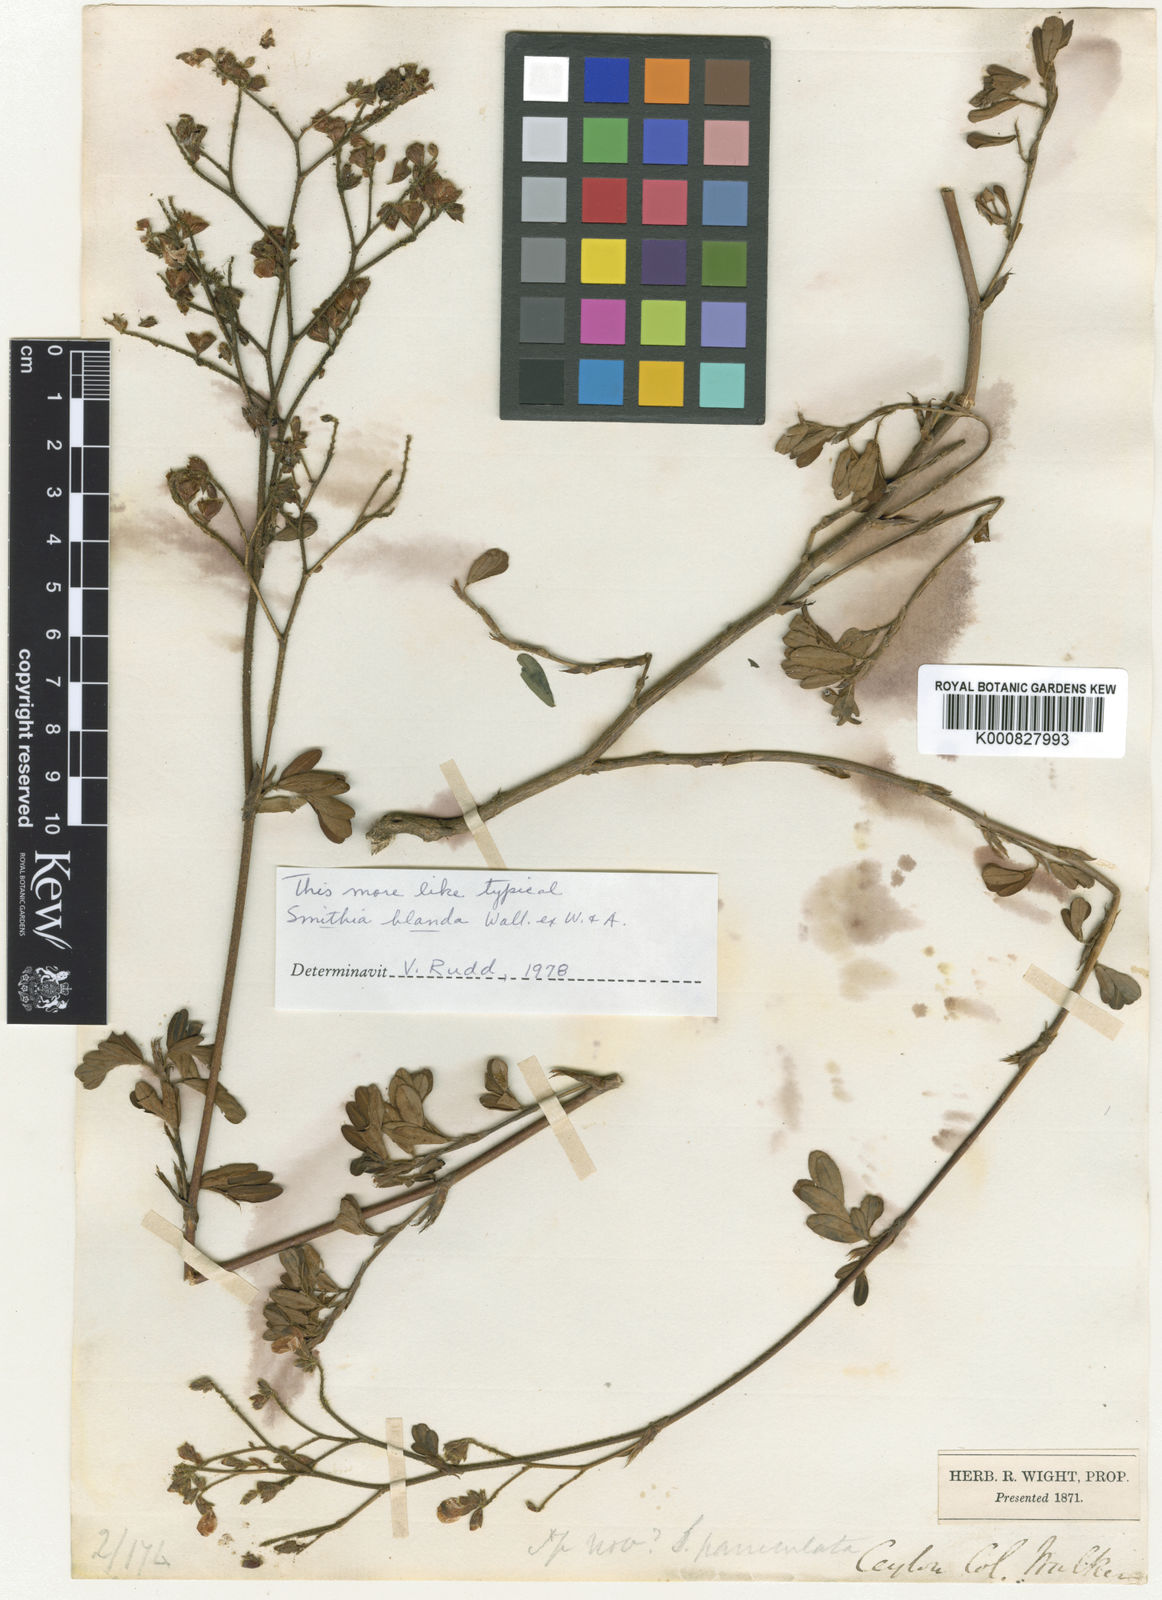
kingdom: Plantae
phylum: Tracheophyta
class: Magnoliopsida
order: Fabales
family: Fabaceae
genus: Smithia
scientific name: Smithia blanda
